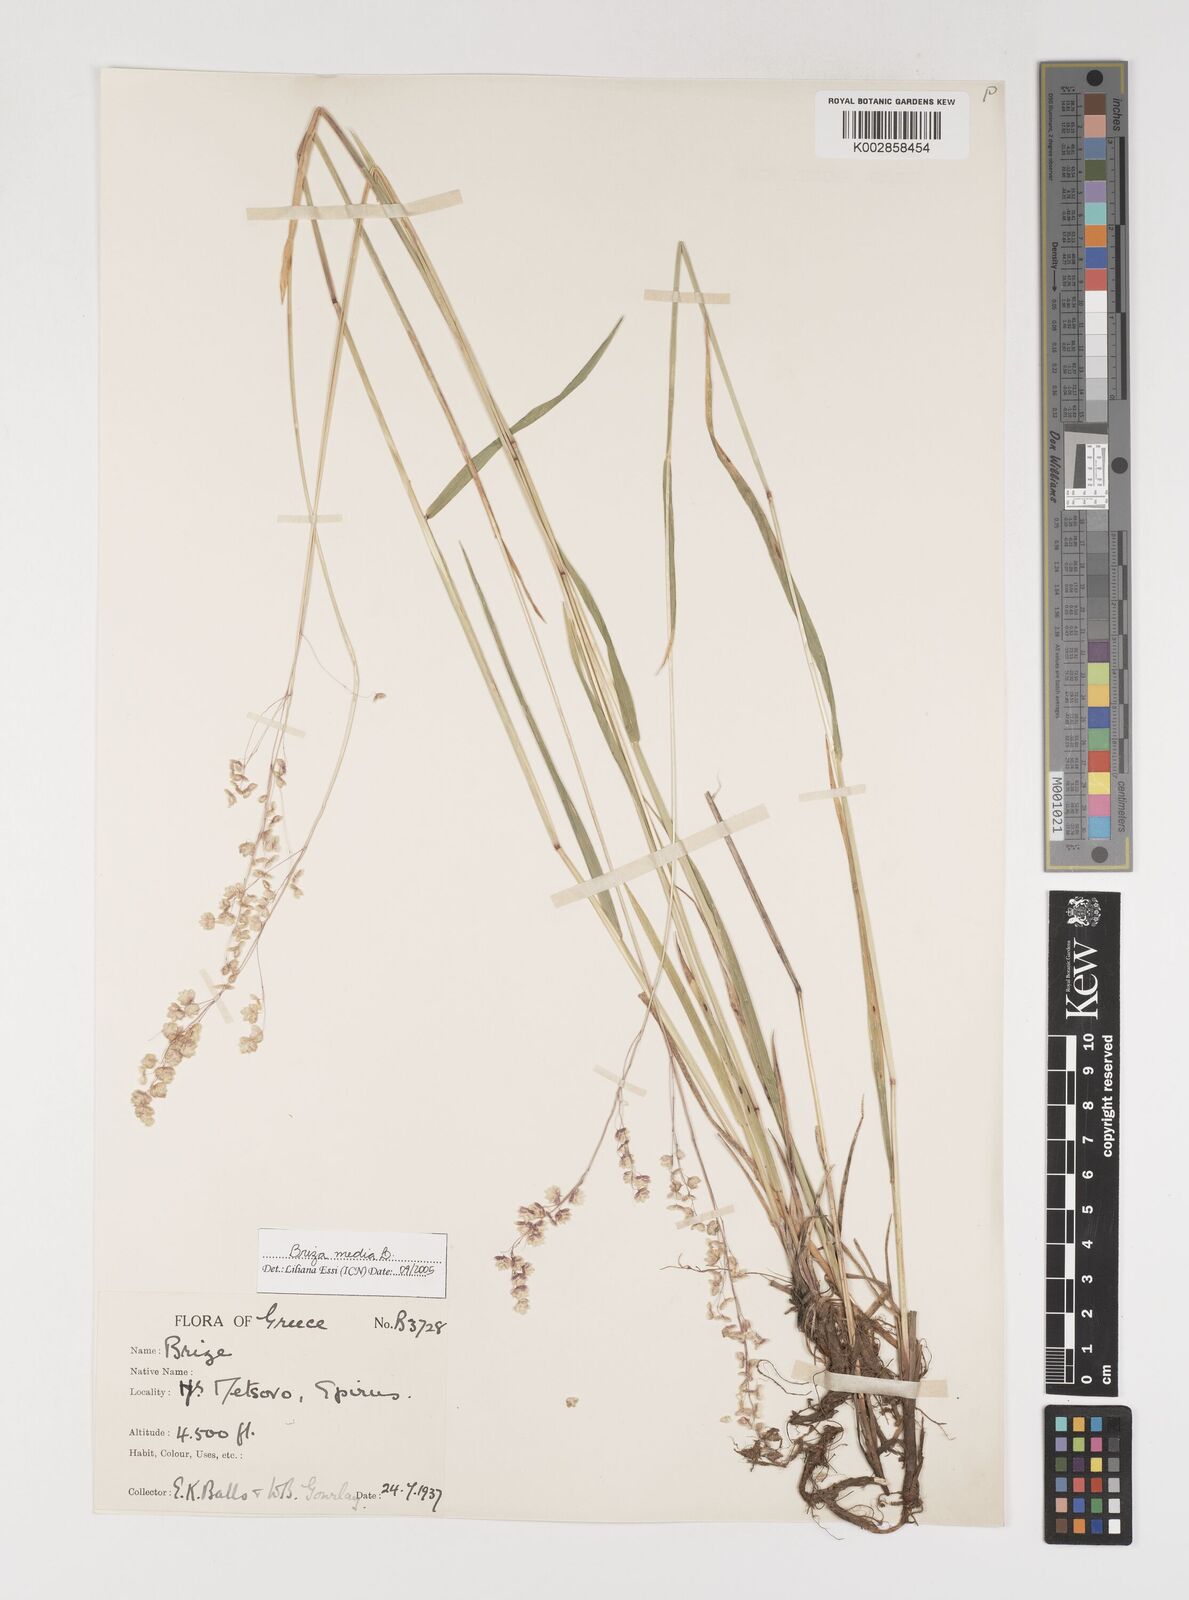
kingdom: Plantae
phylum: Tracheophyta
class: Liliopsida
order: Poales
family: Poaceae
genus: Briza
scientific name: Briza media
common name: Quaking grass
